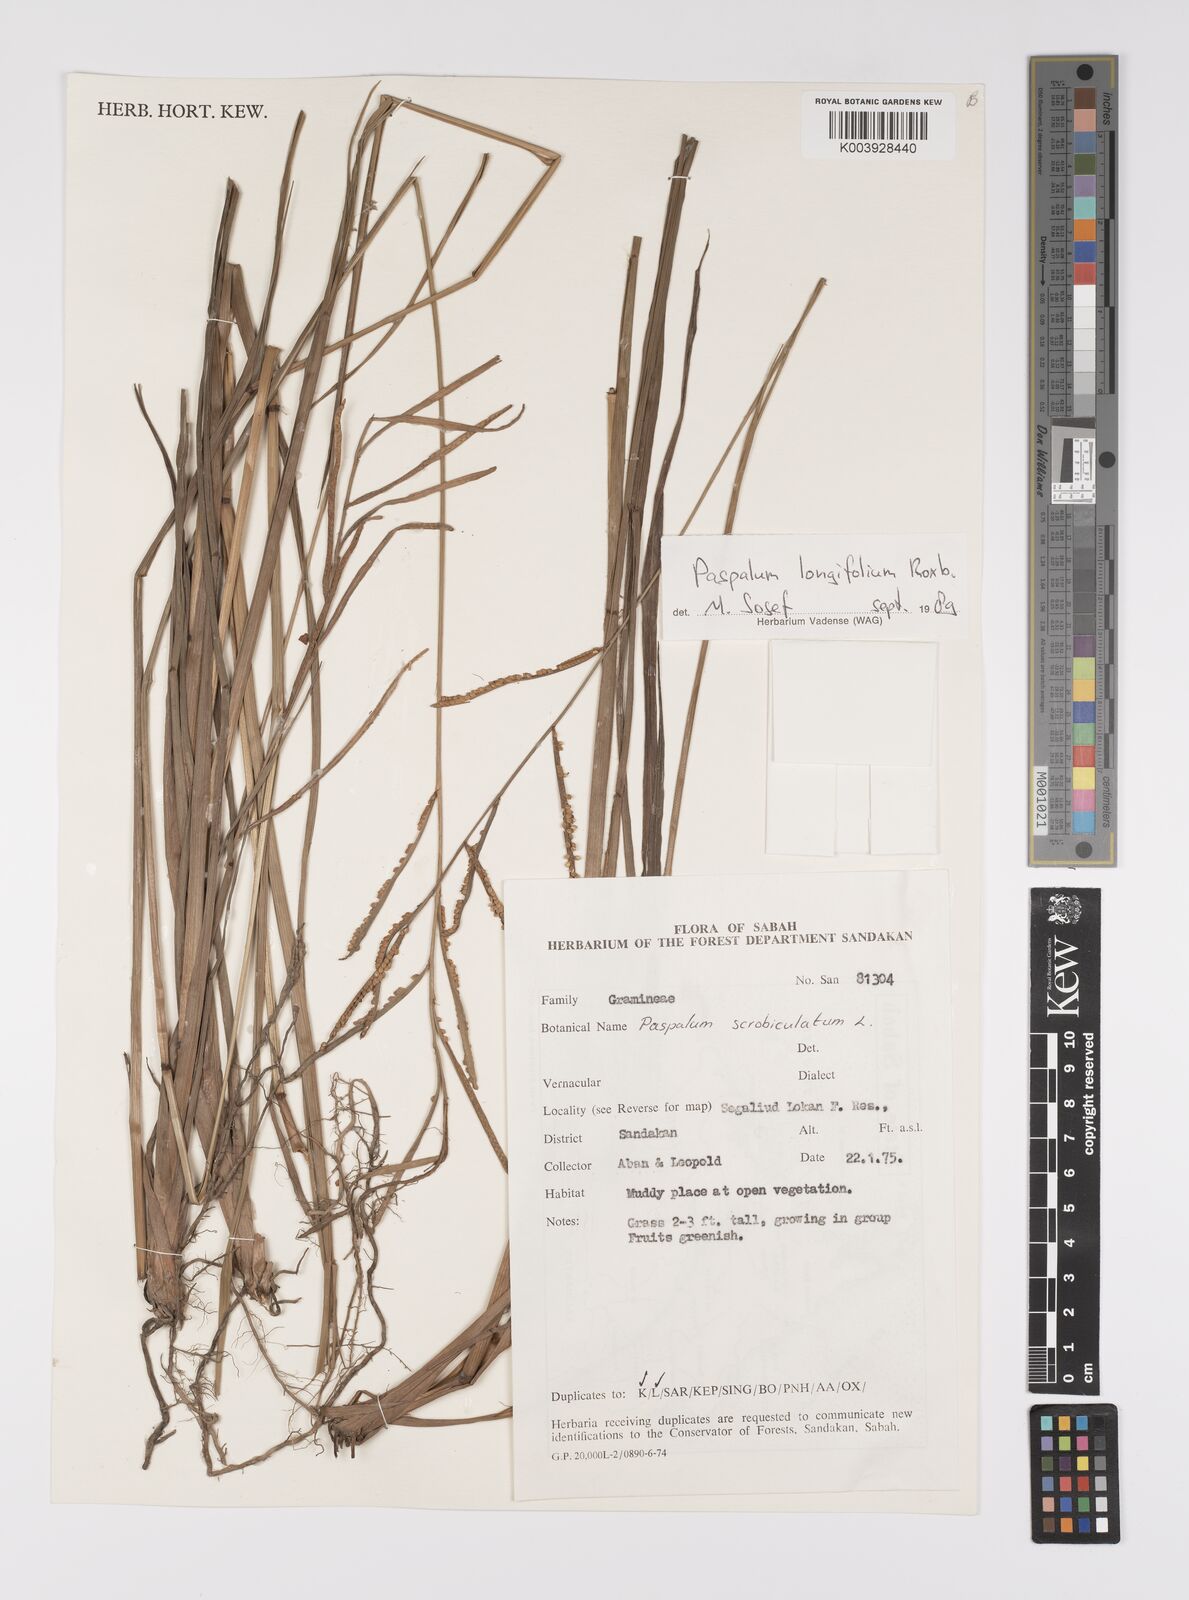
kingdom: Plantae
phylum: Tracheophyta
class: Liliopsida
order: Poales
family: Poaceae
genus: Paspalum
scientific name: Paspalum sumatrense
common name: Long-leaved paspalum
